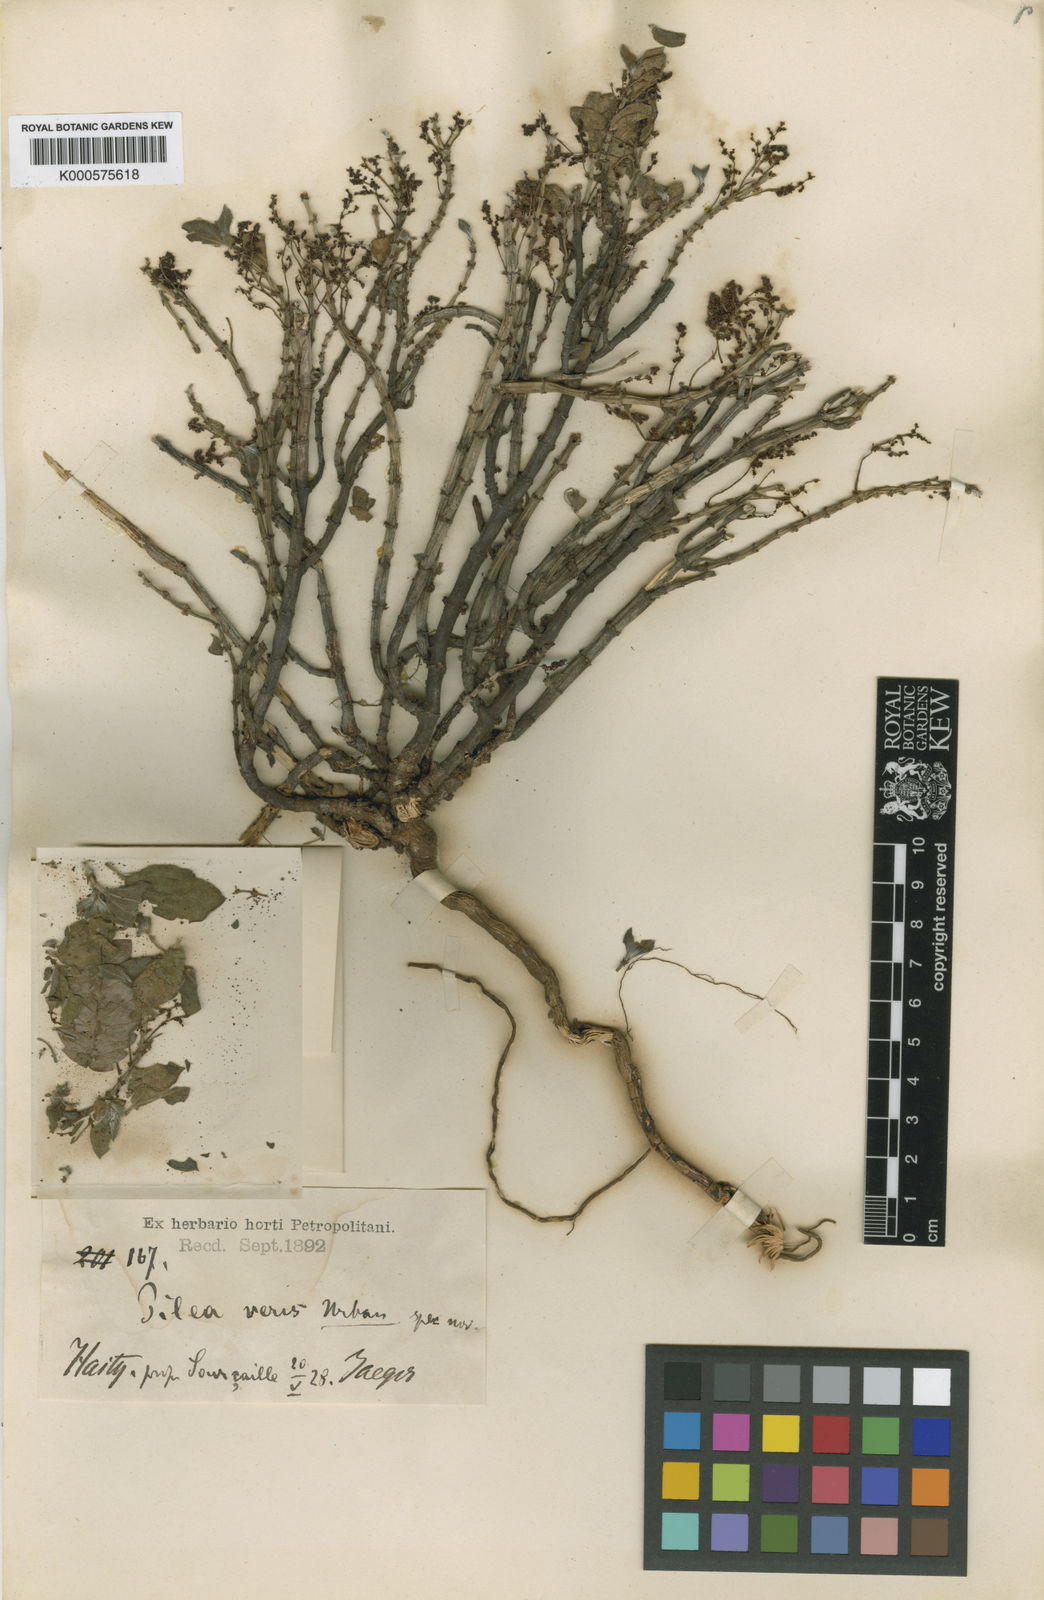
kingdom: Plantae
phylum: Tracheophyta
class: Magnoliopsida
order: Rosales
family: Urticaceae
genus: Pilea
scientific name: Pilea
